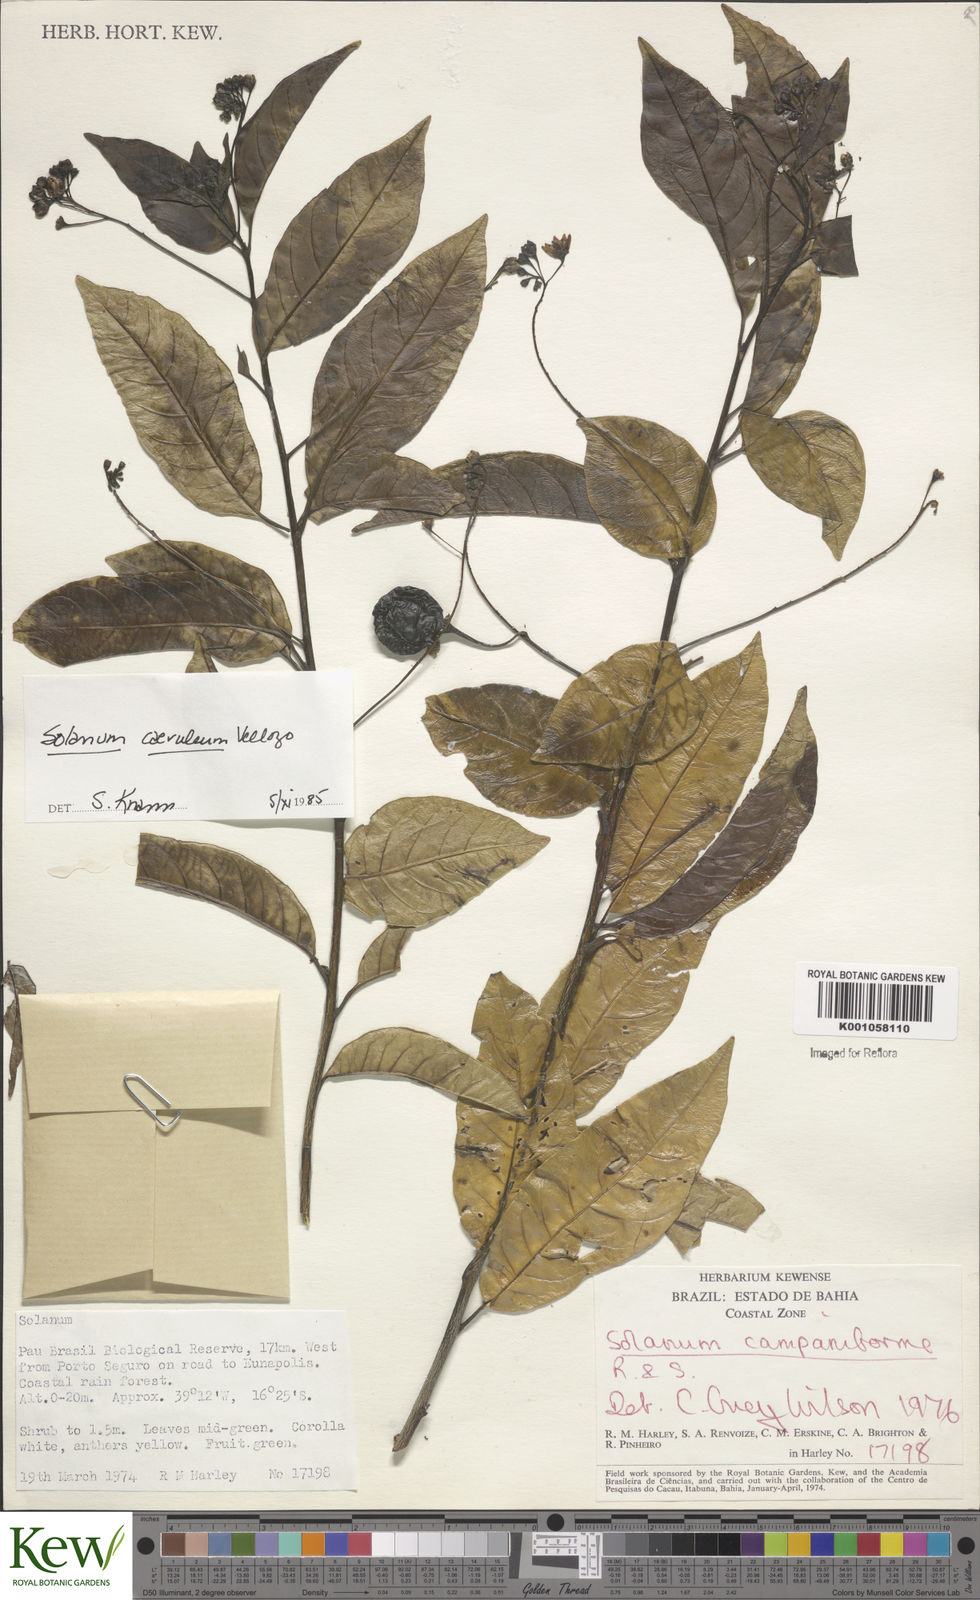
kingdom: Plantae
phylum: Tracheophyta
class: Magnoliopsida
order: Solanales
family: Solanaceae
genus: Solanum
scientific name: Solanum campaniforme
